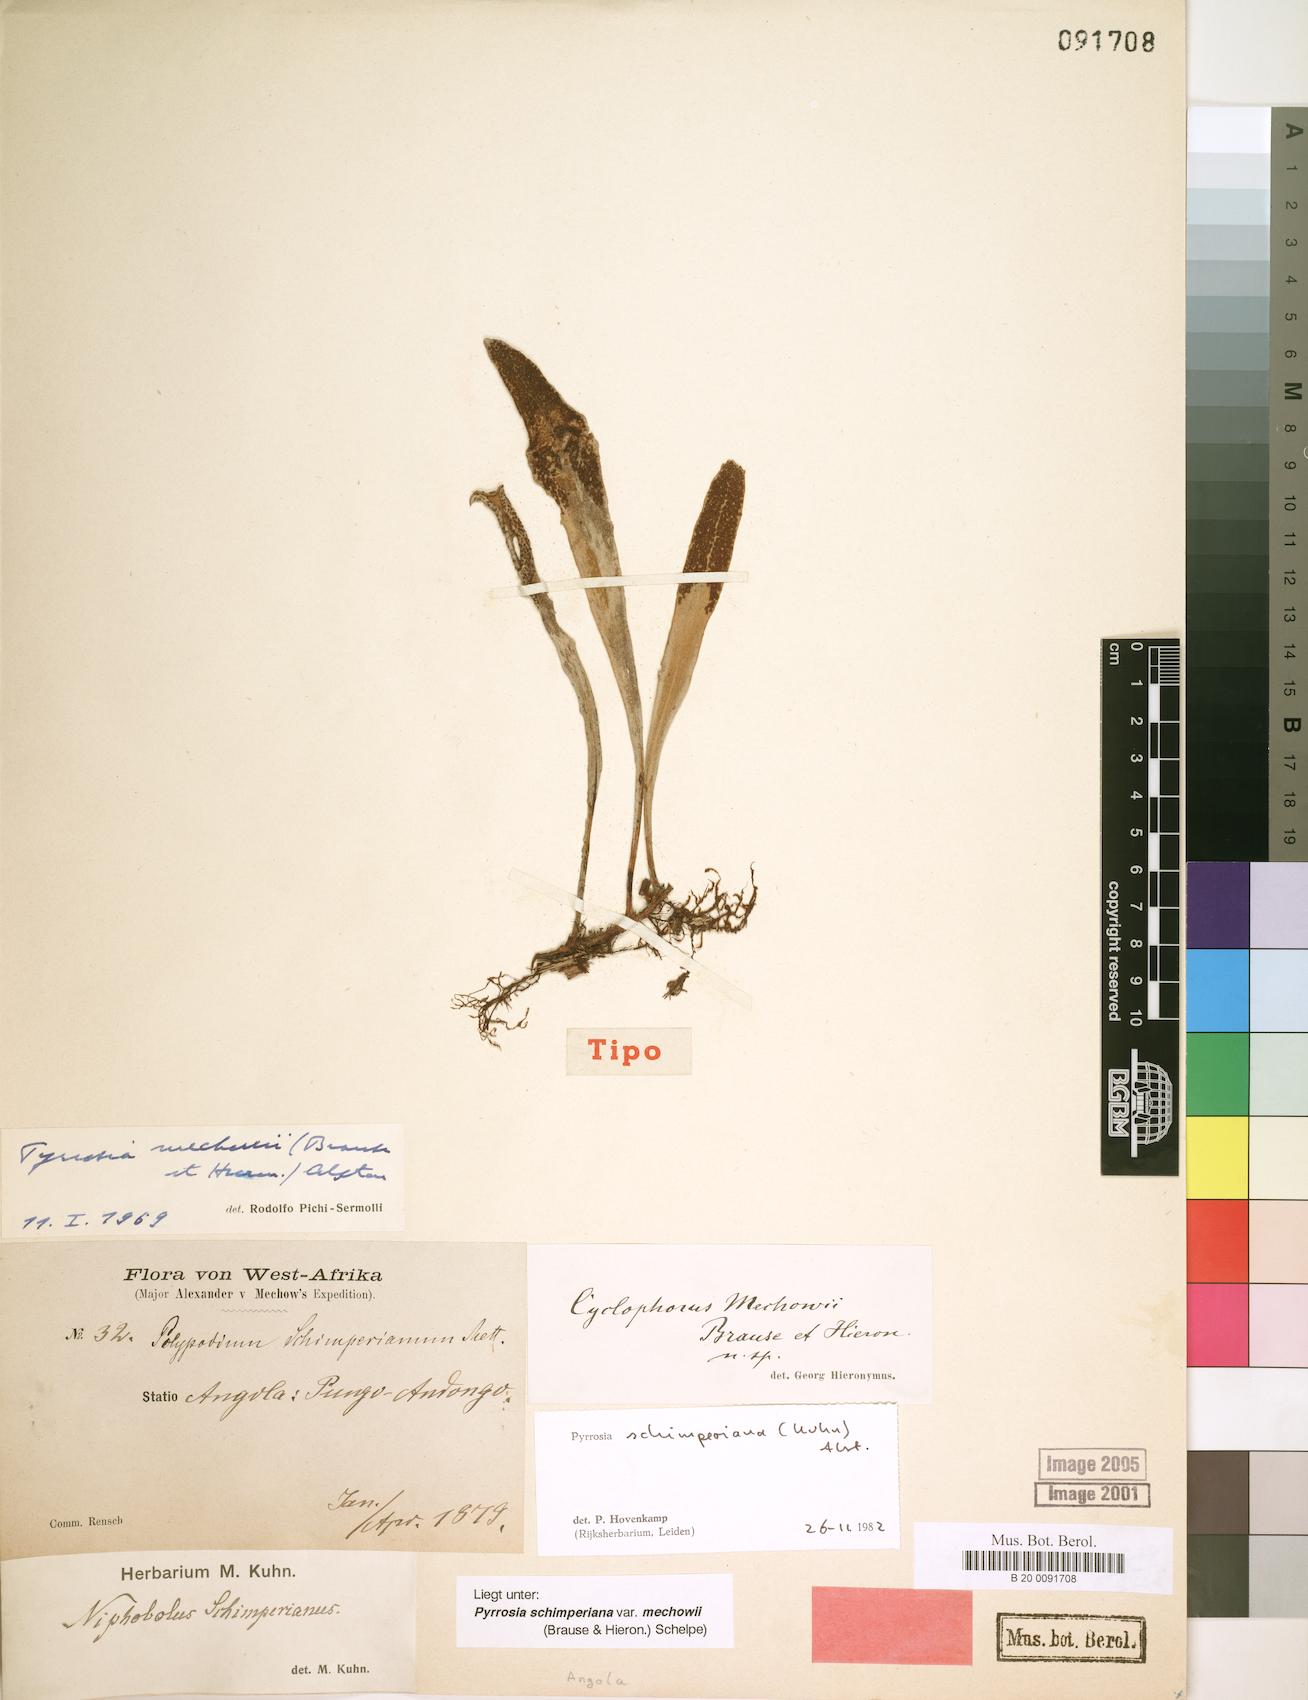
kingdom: Plantae
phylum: Tracheophyta
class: Polypodiopsida
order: Polypodiales
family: Polypodiaceae
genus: Hovenkampia
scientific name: Hovenkampia schimperiana
